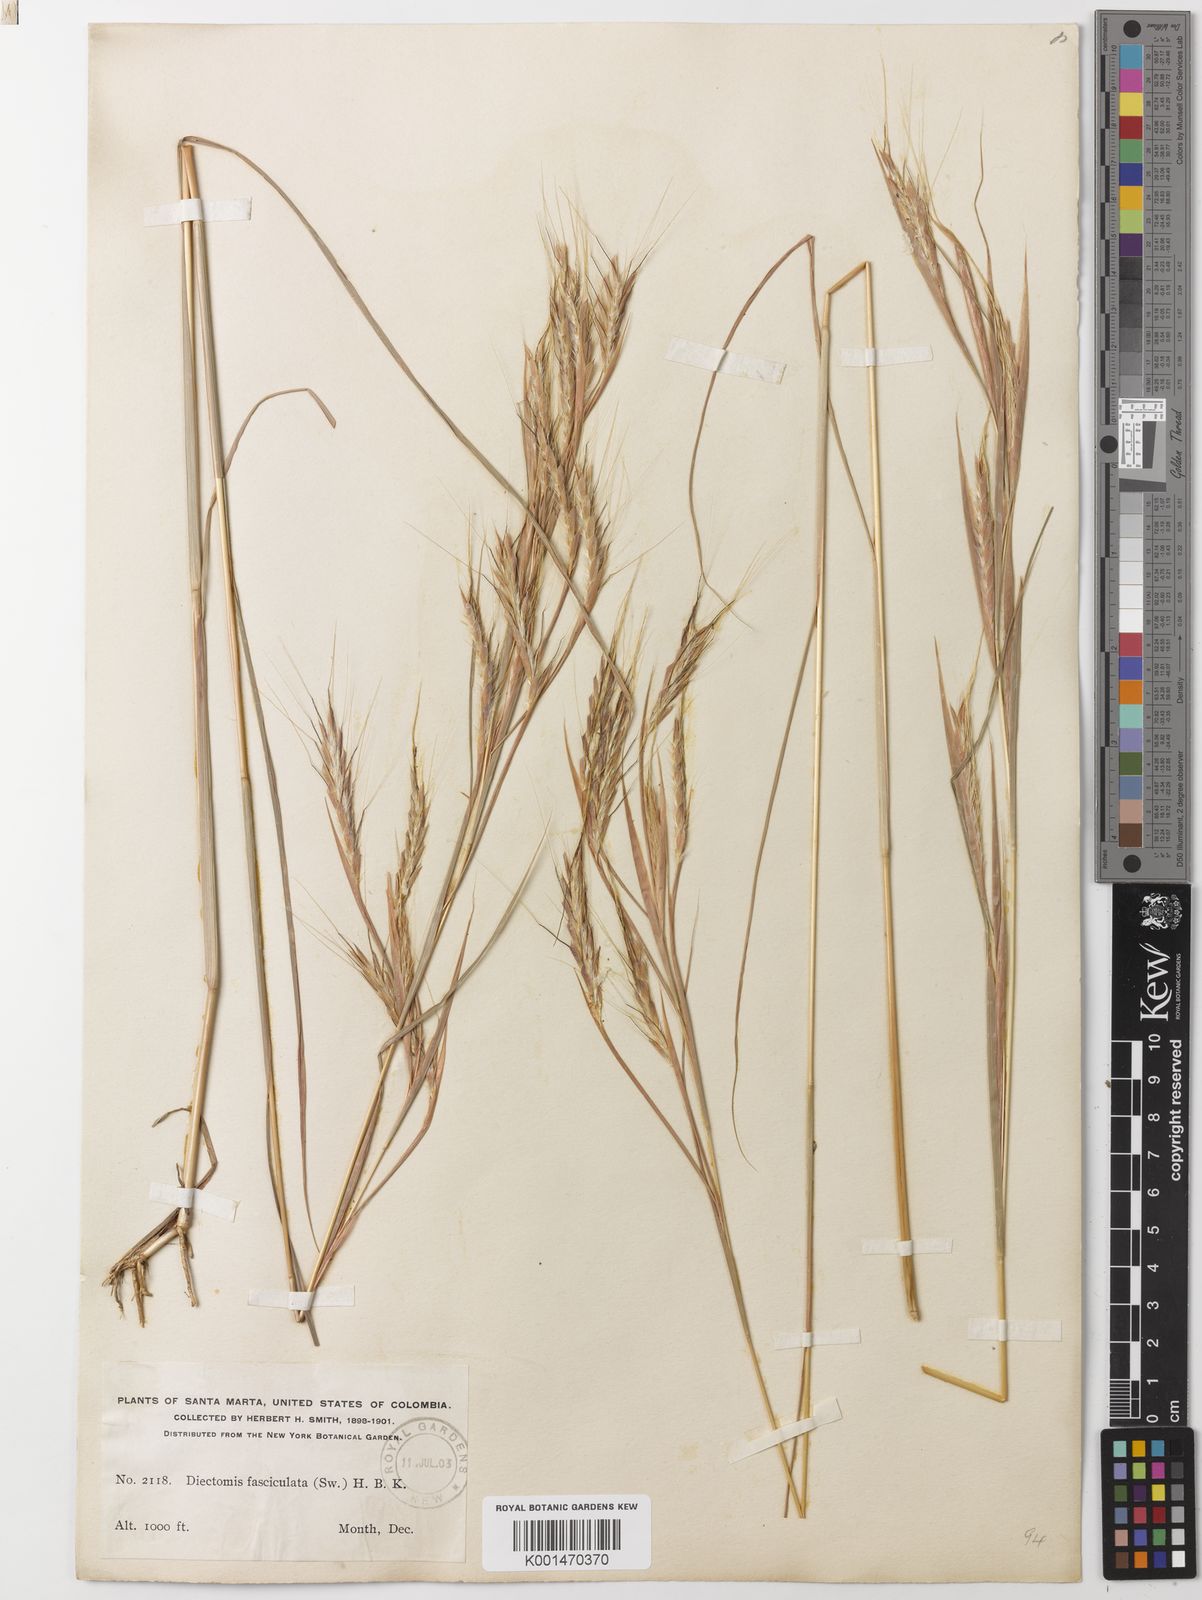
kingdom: Plantae
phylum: Tracheophyta
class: Liliopsida
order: Poales
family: Poaceae
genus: Diectomis
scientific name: Diectomis fastigiata
